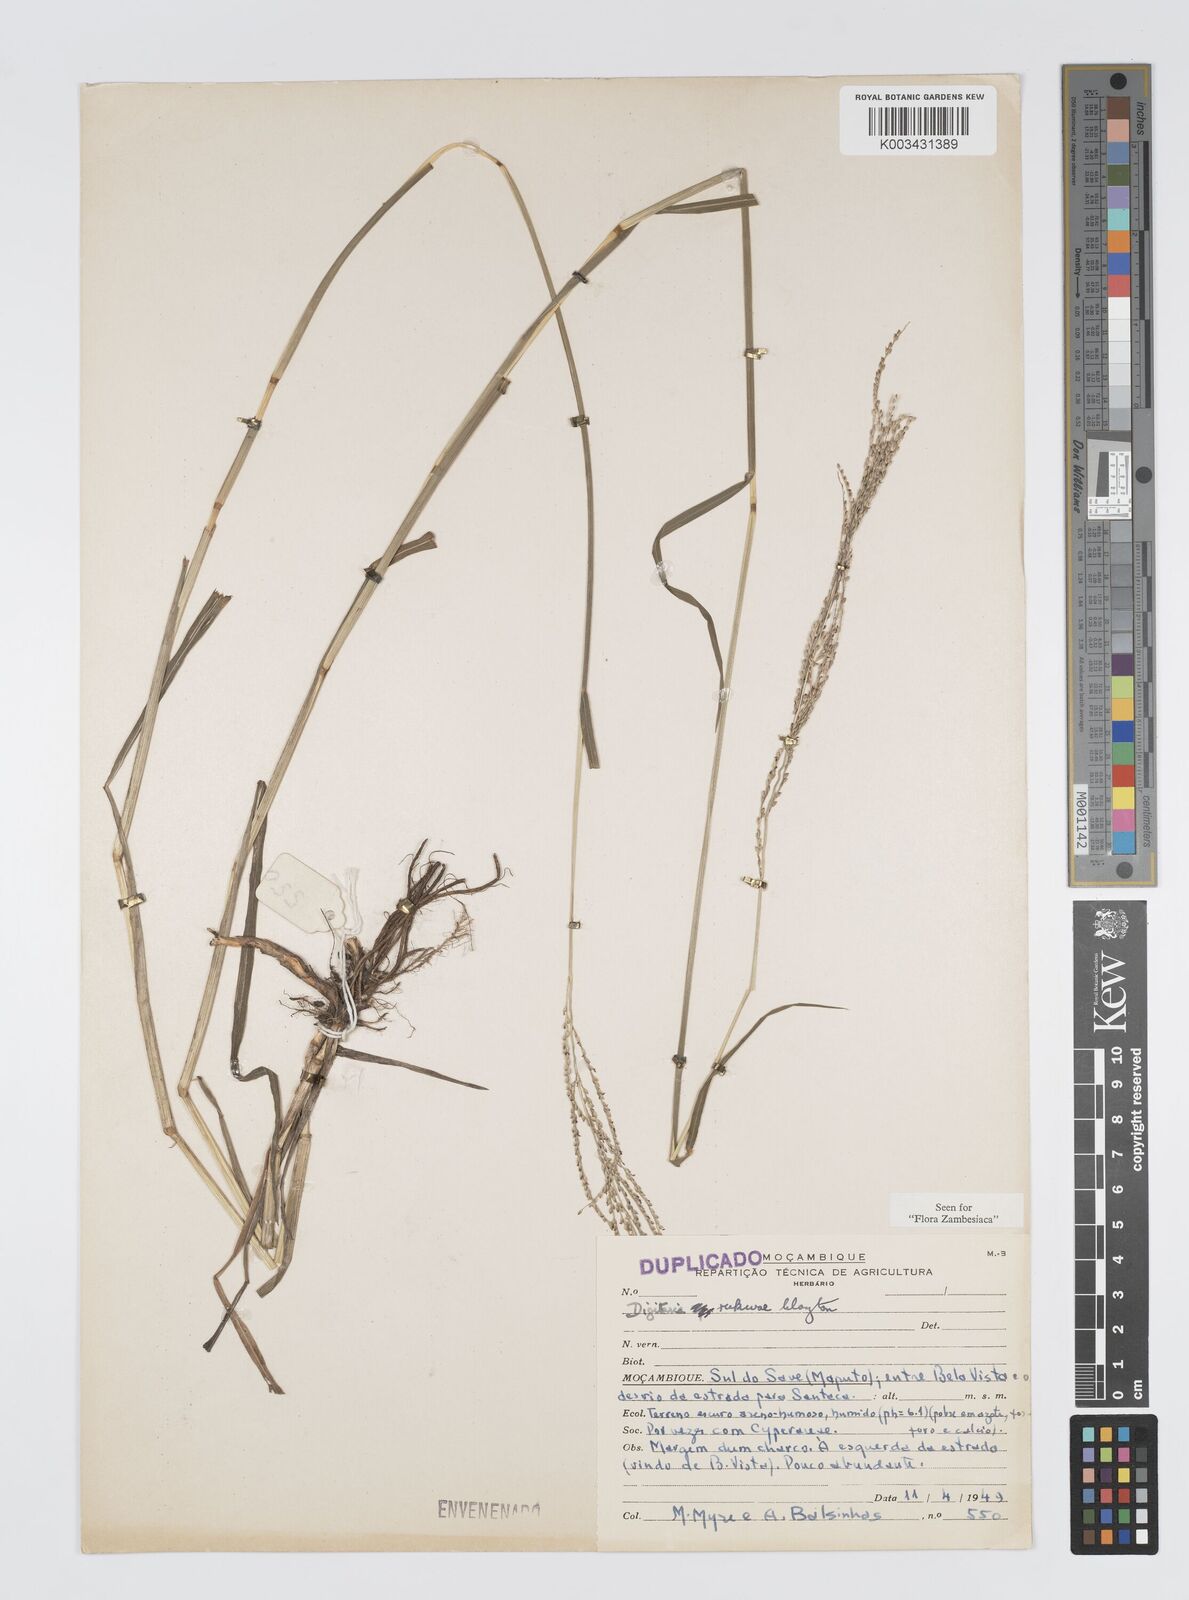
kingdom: Plantae
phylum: Tracheophyta
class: Liliopsida
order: Poales
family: Poaceae
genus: Digitaria
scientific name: Digitaria rukwae
